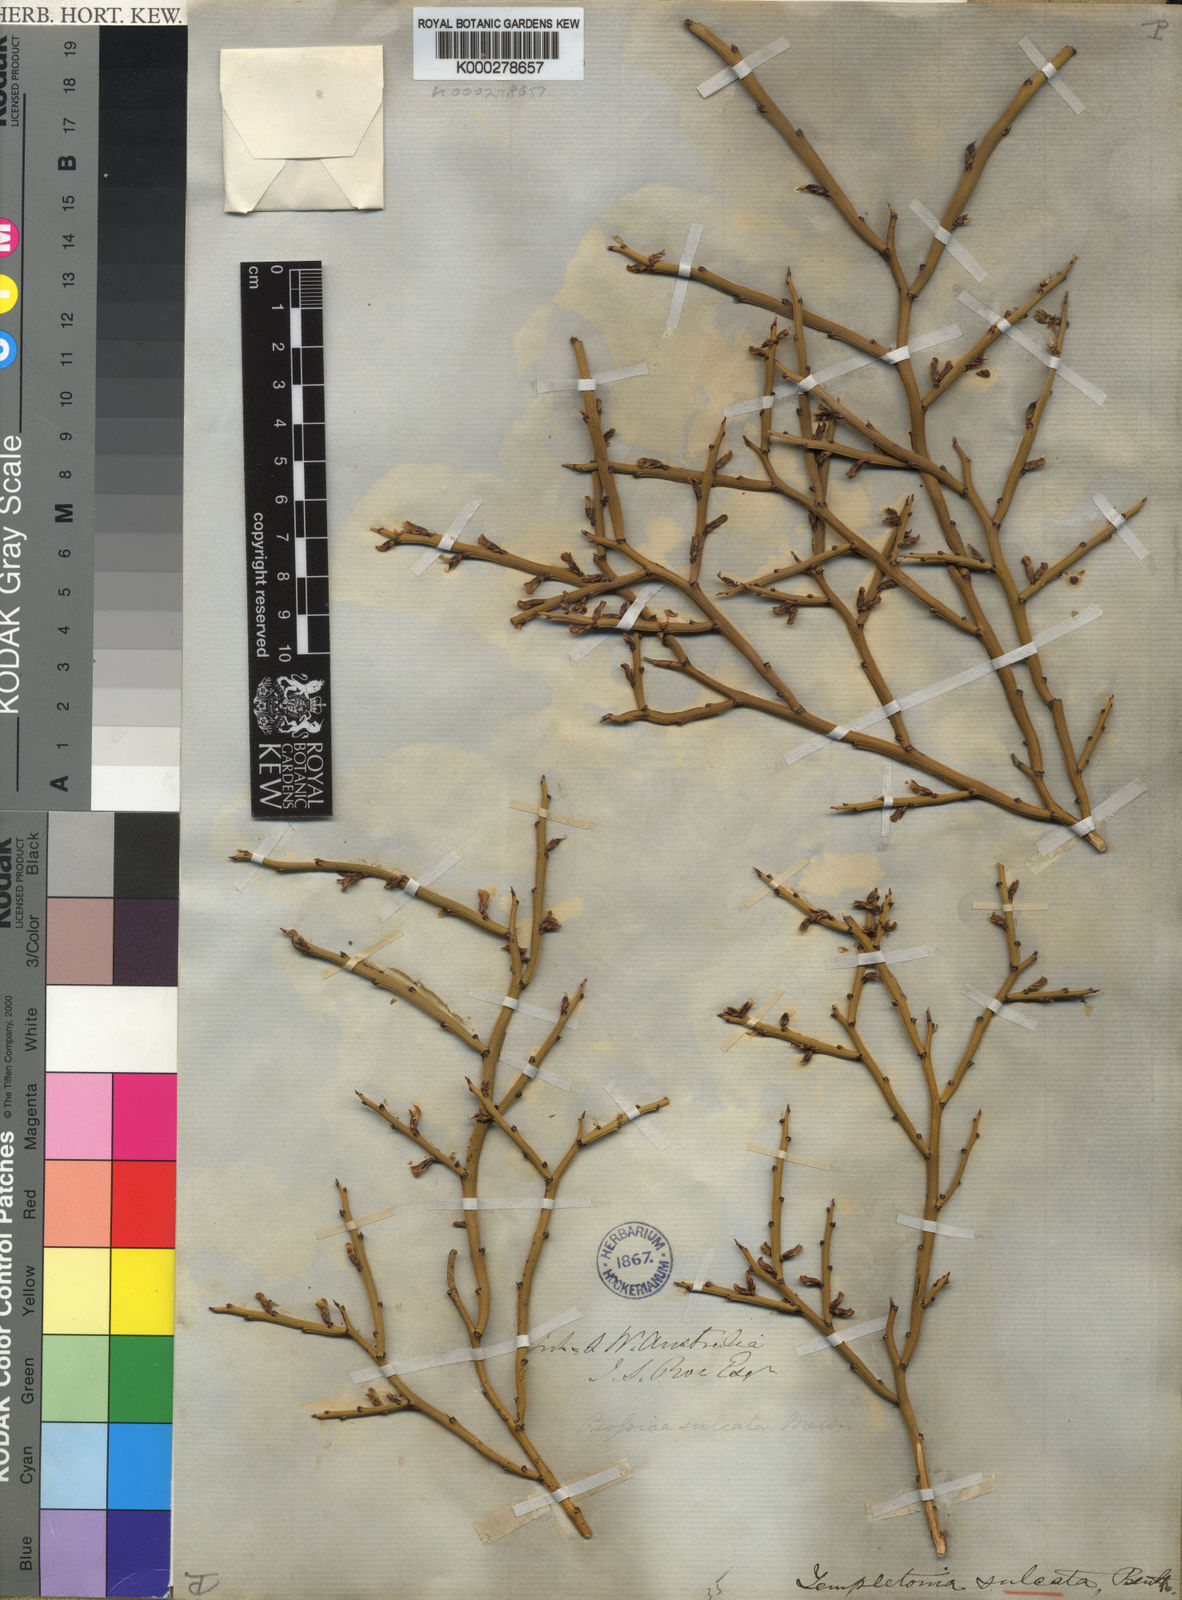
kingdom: Plantae
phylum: Tracheophyta
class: Magnoliopsida
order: Fabales
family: Fabaceae
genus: Templetonia
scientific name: Templetonia sulcata
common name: Flat mallee-pea
